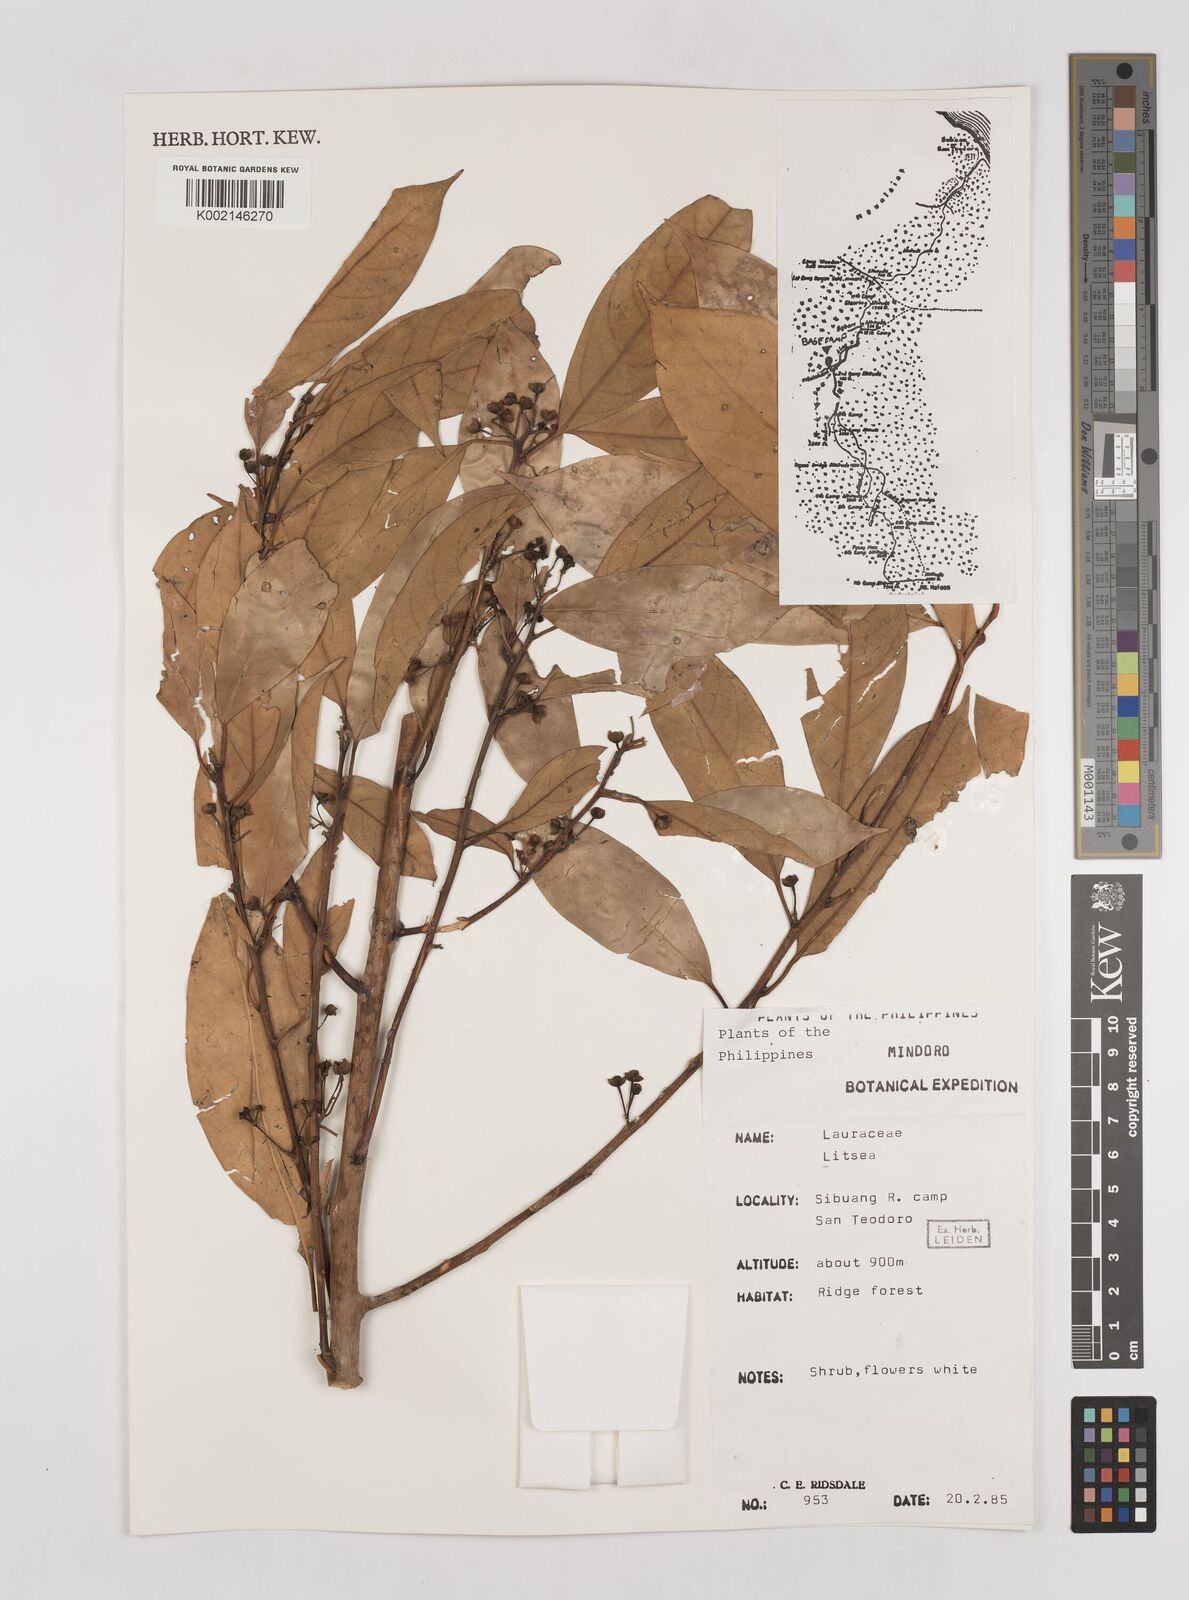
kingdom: Plantae
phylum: Tracheophyta
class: Magnoliopsida
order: Laurales
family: Lauraceae
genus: Litsea
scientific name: Litsea
